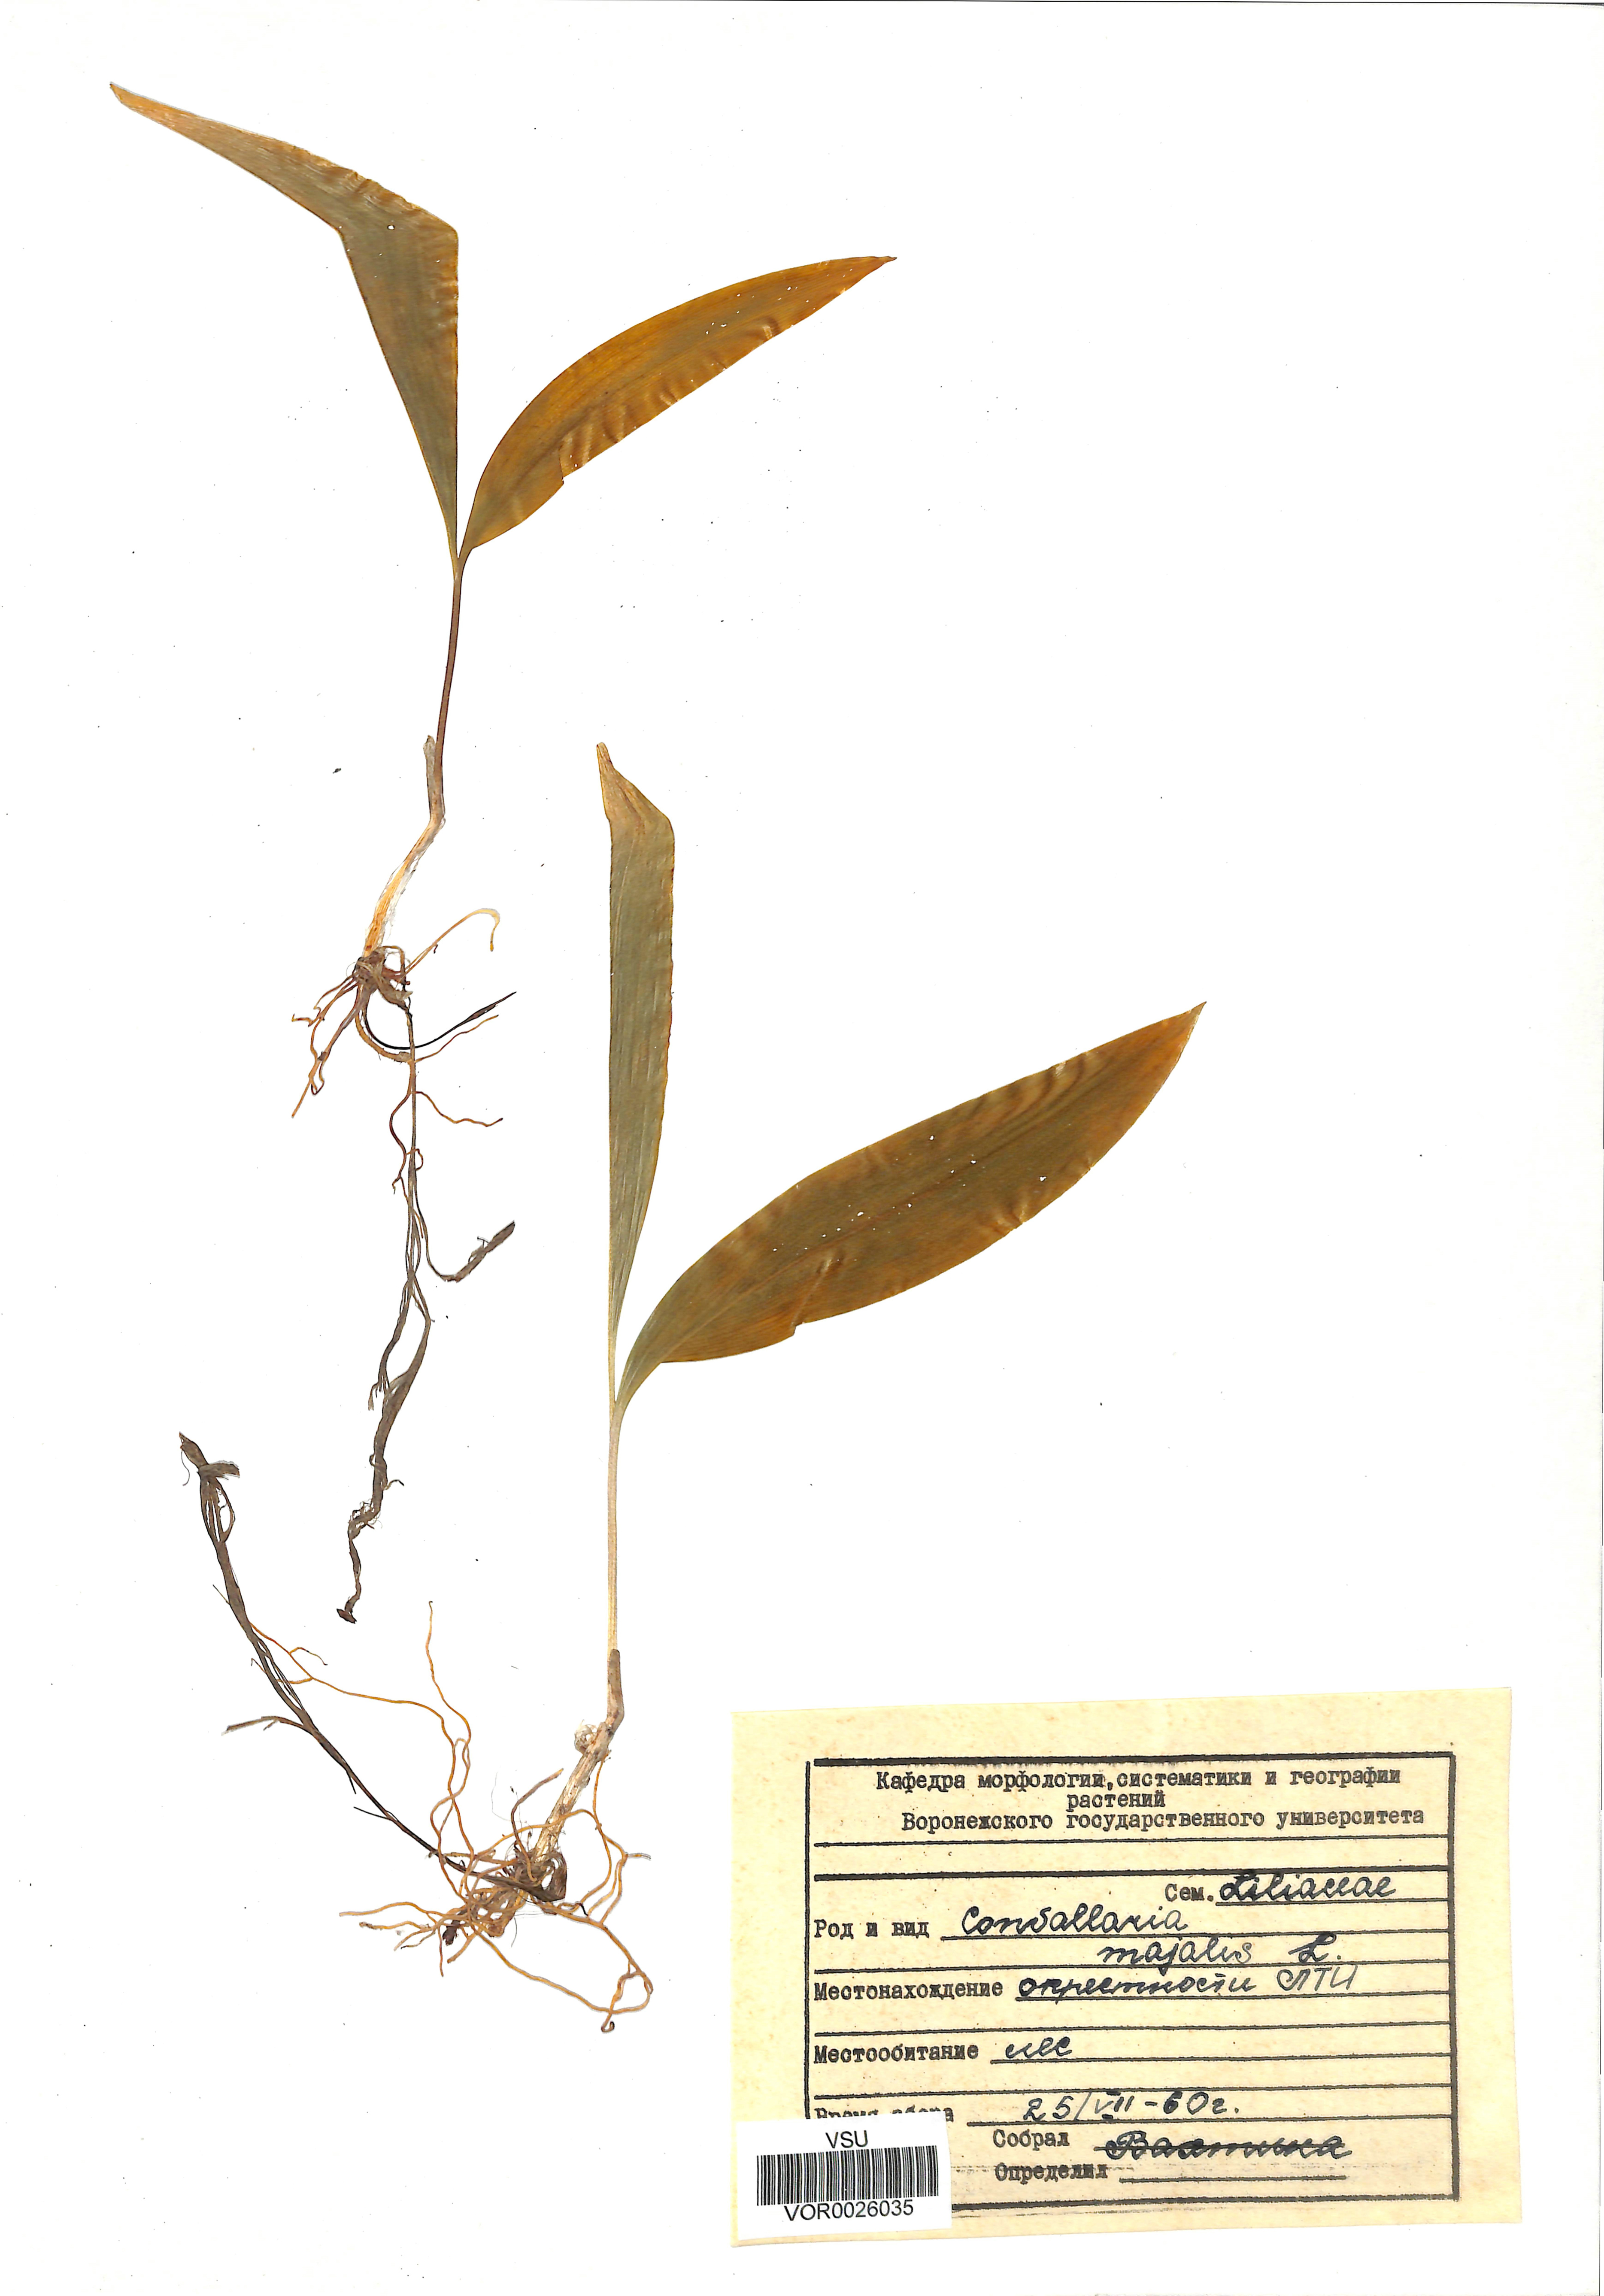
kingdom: Plantae
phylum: Tracheophyta
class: Liliopsida
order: Asparagales
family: Asparagaceae
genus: Convallaria
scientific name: Convallaria majalis
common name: Lily-of-the-valley
